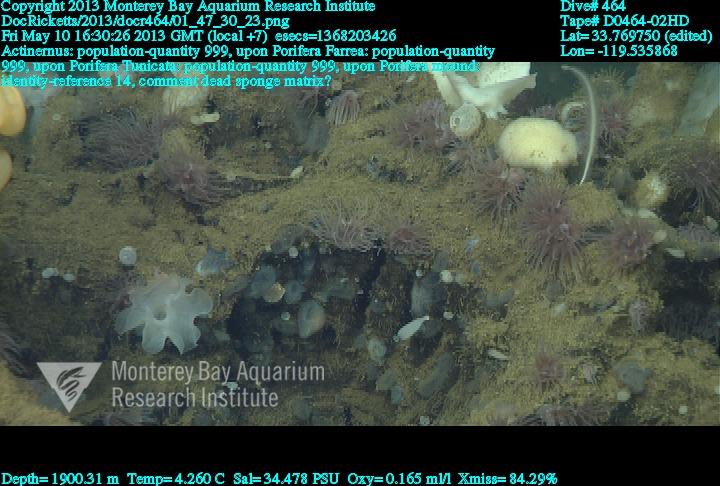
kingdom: Animalia
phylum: Porifera
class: Hexactinellida
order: Sceptrulophora
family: Farreidae
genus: Farrea
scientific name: Farrea
